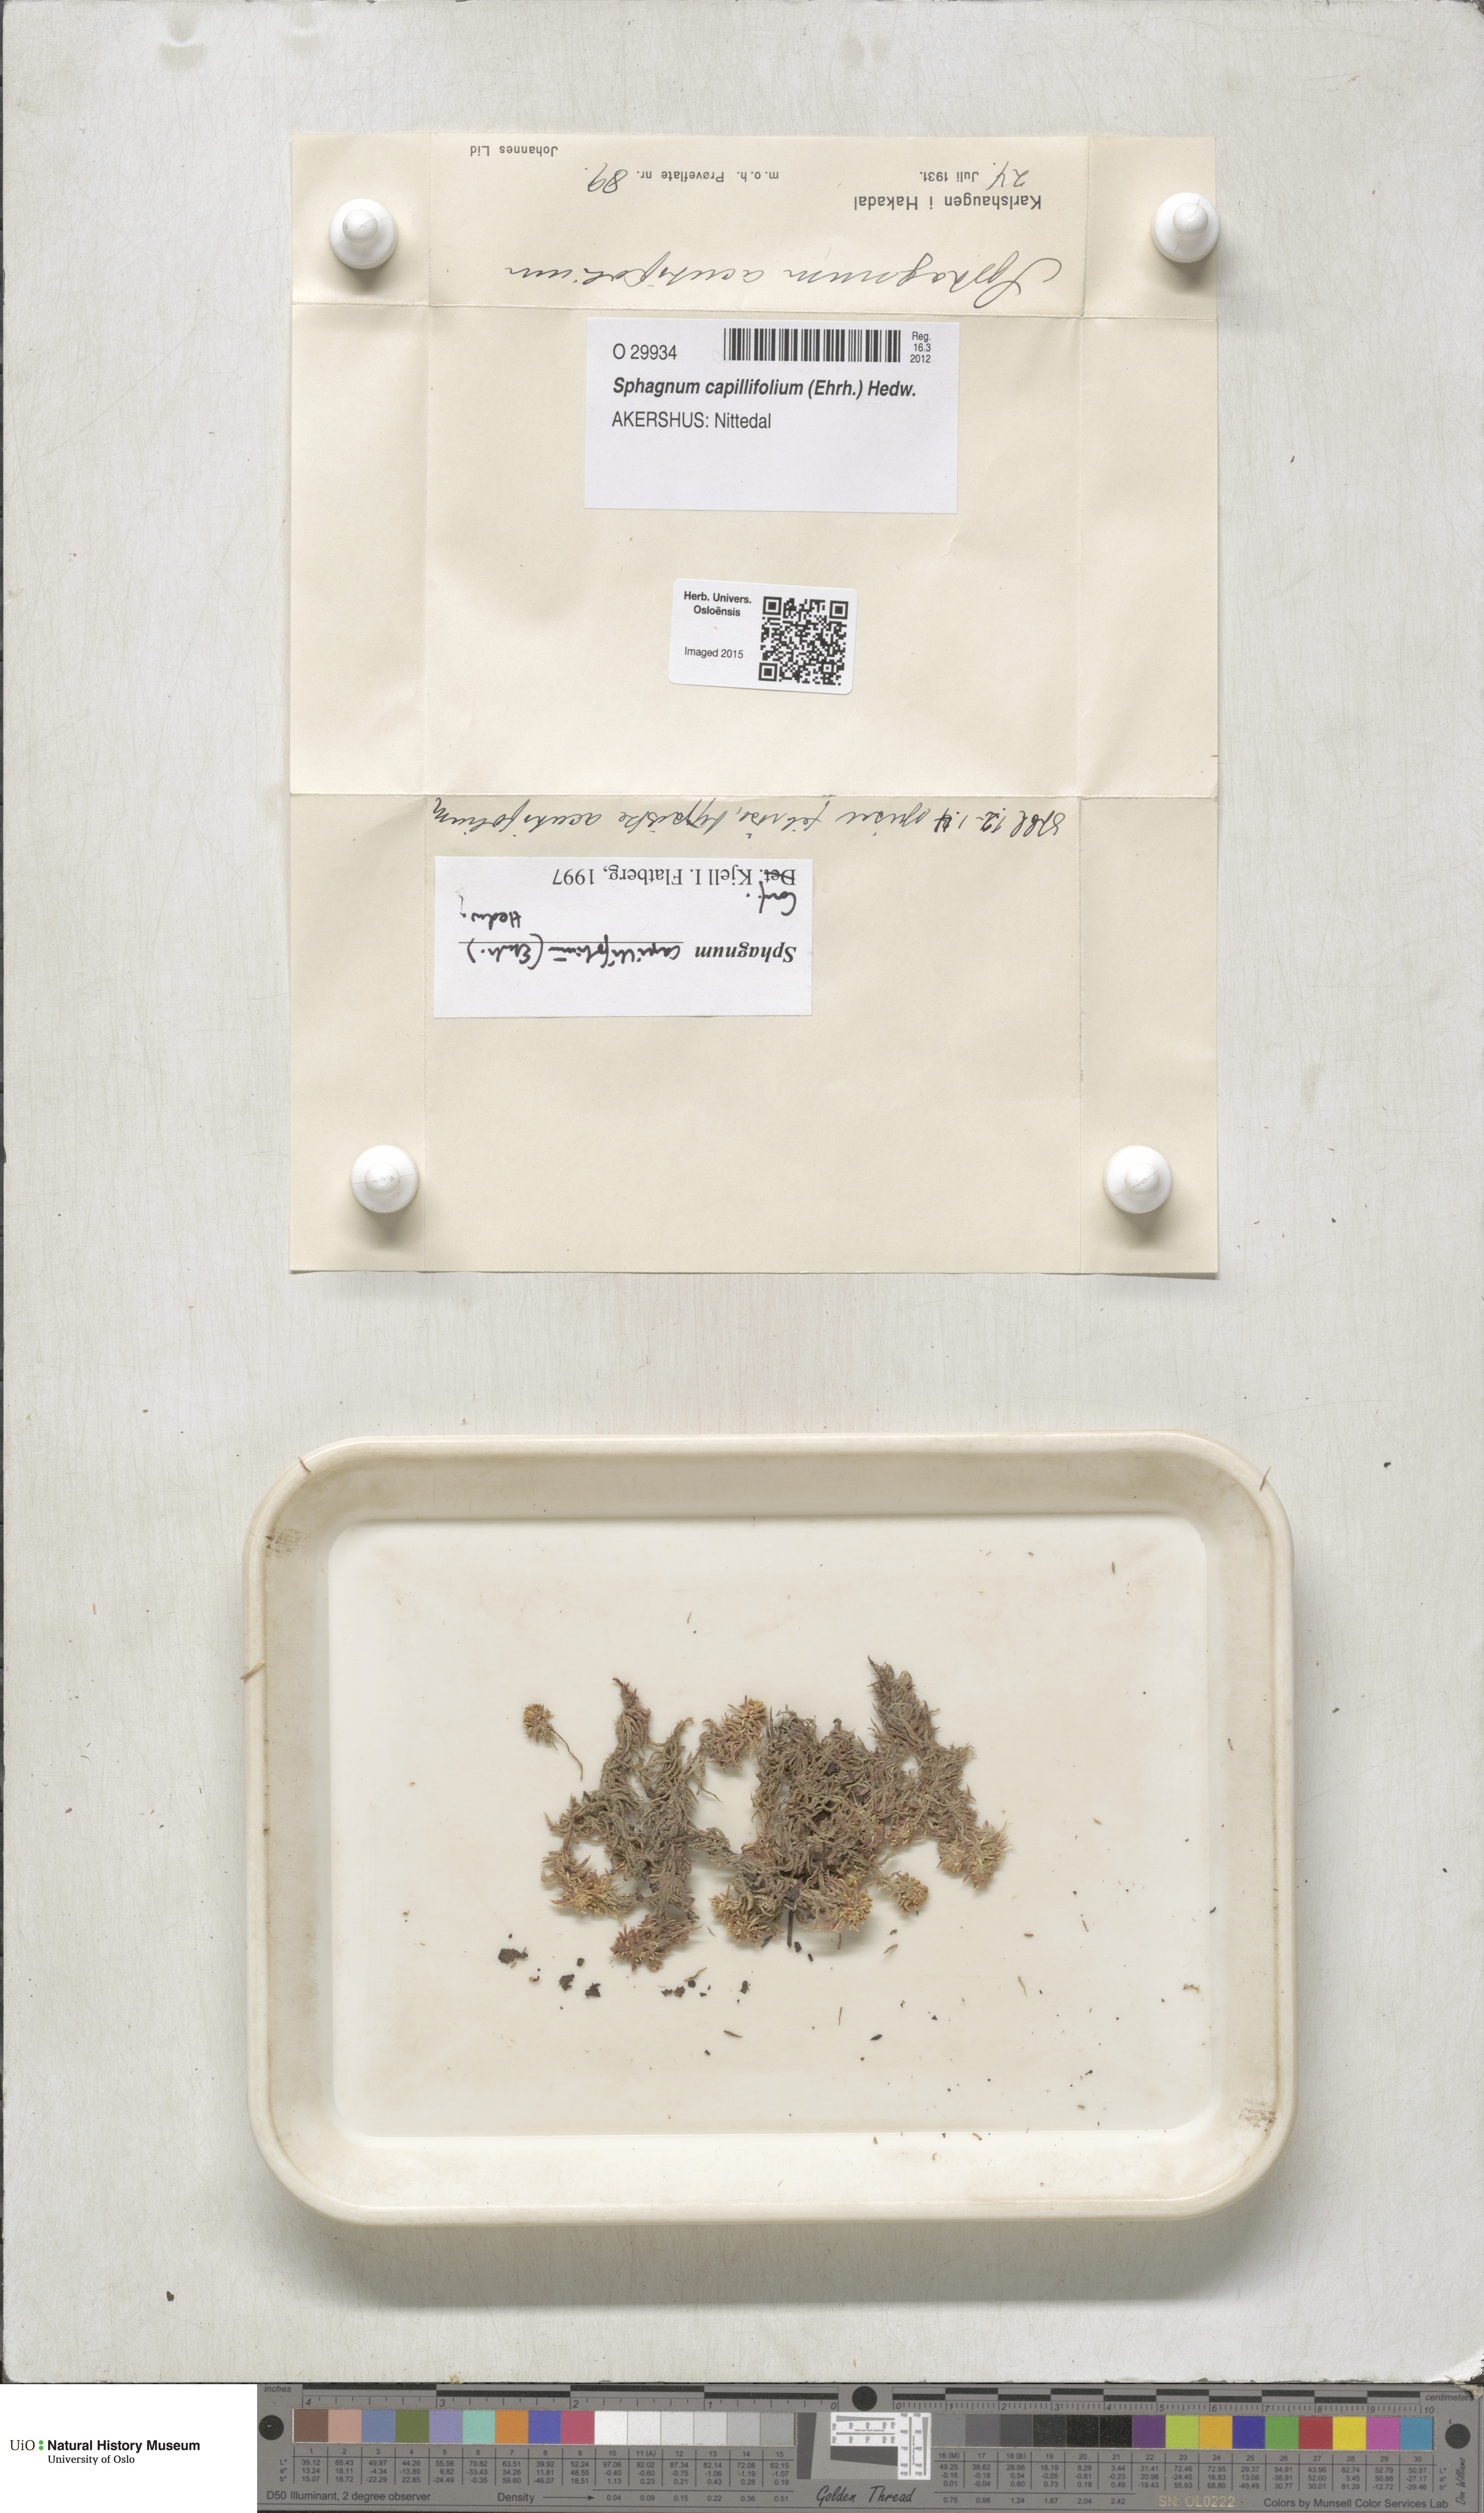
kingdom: Plantae
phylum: Bryophyta
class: Sphagnopsida
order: Sphagnales
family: Sphagnaceae
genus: Sphagnum
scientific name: Sphagnum capillifolium
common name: Small red peat moss
